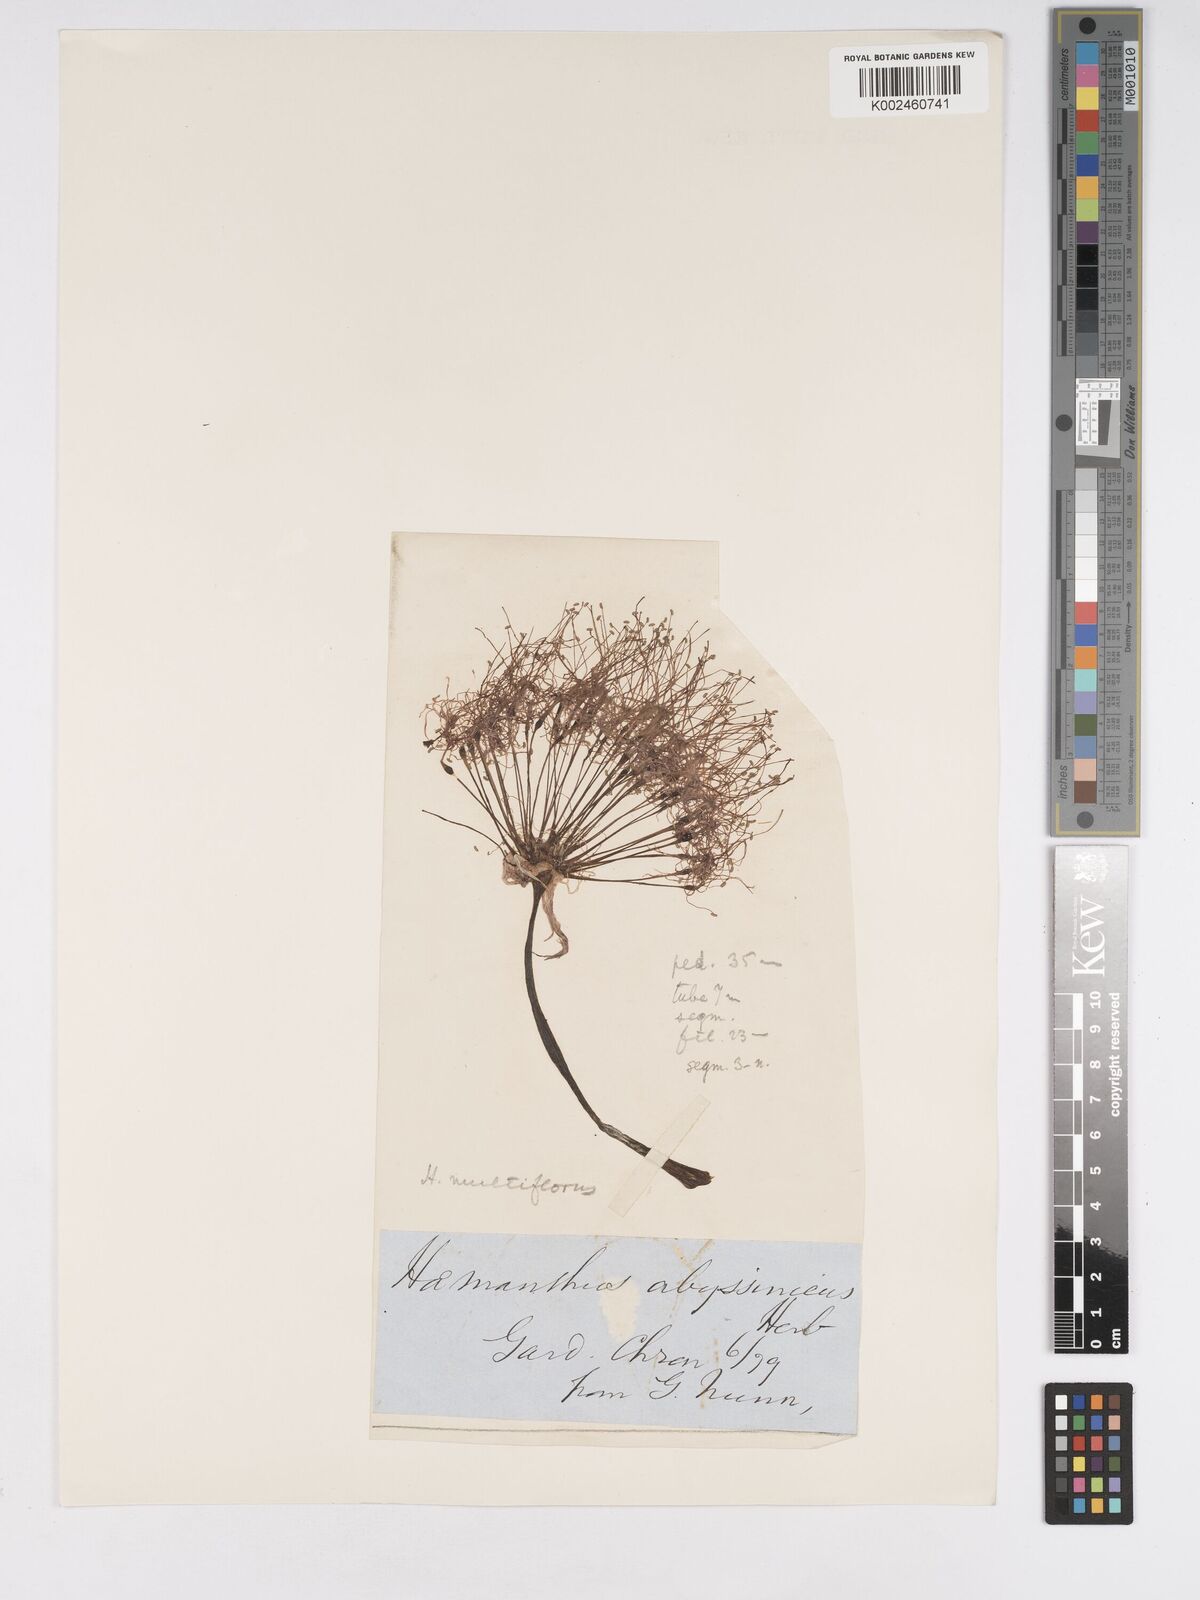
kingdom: Plantae
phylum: Tracheophyta
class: Liliopsida
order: Asparagales
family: Amaryllidaceae
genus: Scadoxus
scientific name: Scadoxus multiflorus
